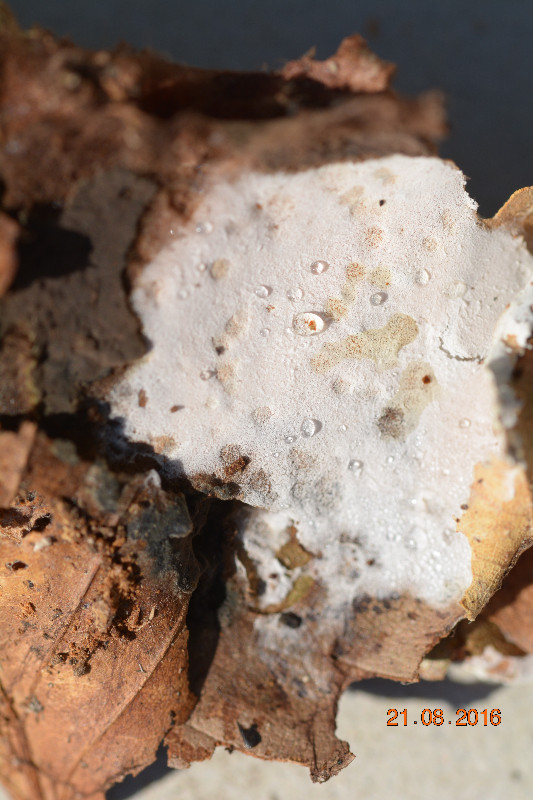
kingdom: Fungi
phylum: Basidiomycota
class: Agaricomycetes
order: Corticiales
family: Corticiaceae
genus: Corticium
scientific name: Corticium confine
